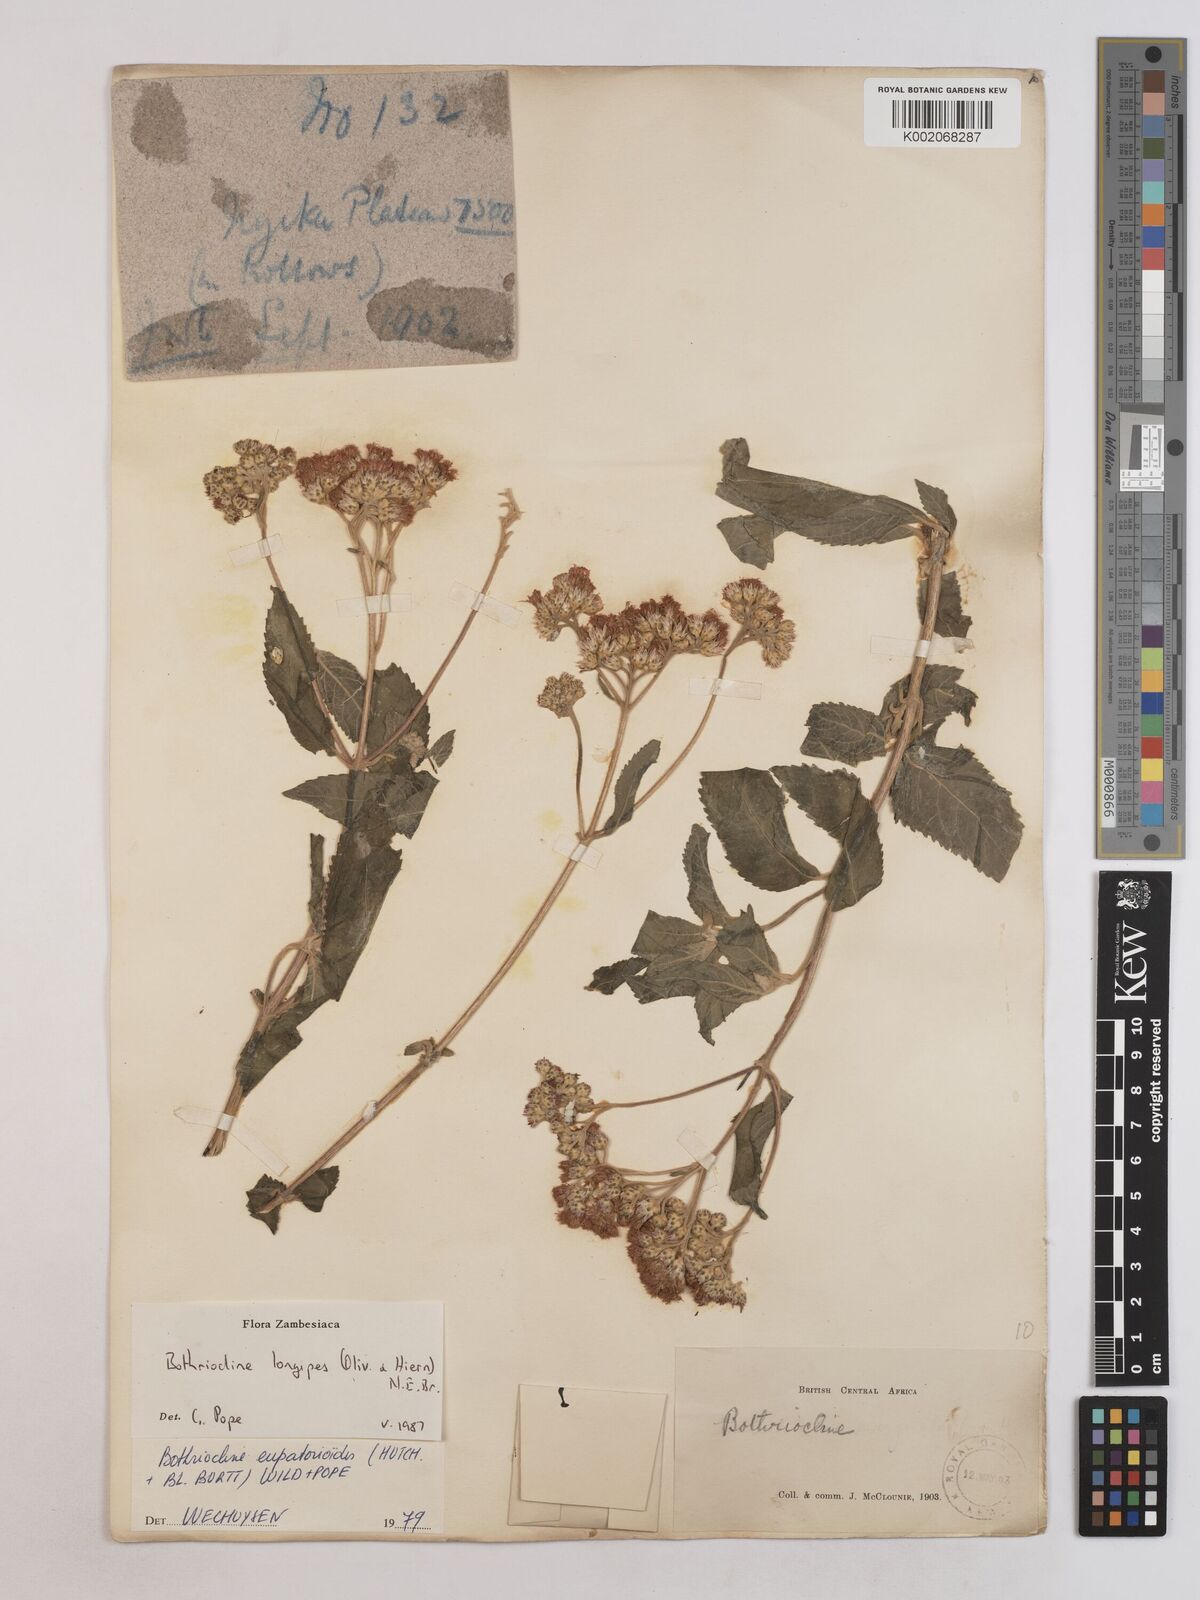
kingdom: Plantae
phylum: Tracheophyta
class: Magnoliopsida
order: Asterales
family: Asteraceae
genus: Bothriocline
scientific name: Bothriocline longipes
